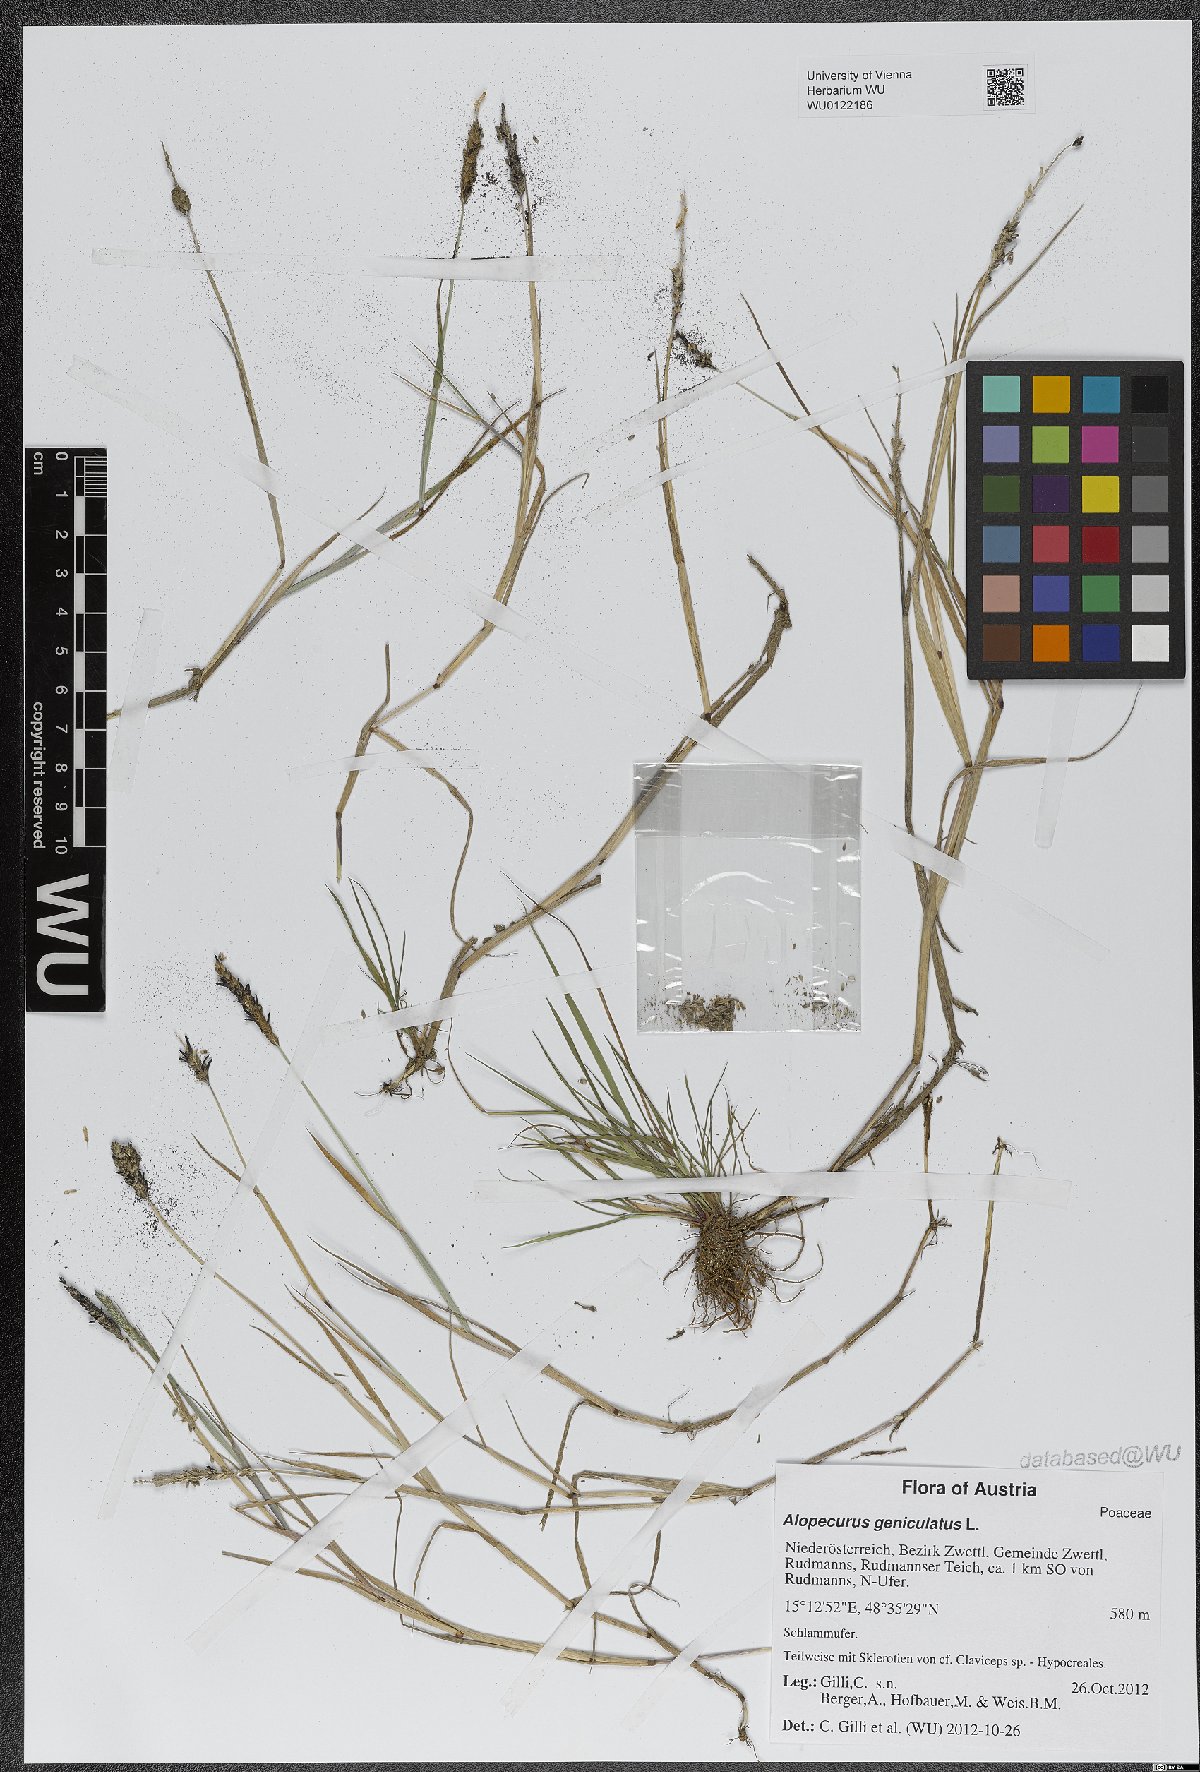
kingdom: Plantae
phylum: Tracheophyta
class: Liliopsida
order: Poales
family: Poaceae
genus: Alopecurus
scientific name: Alopecurus geniculatus
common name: Water foxtail
